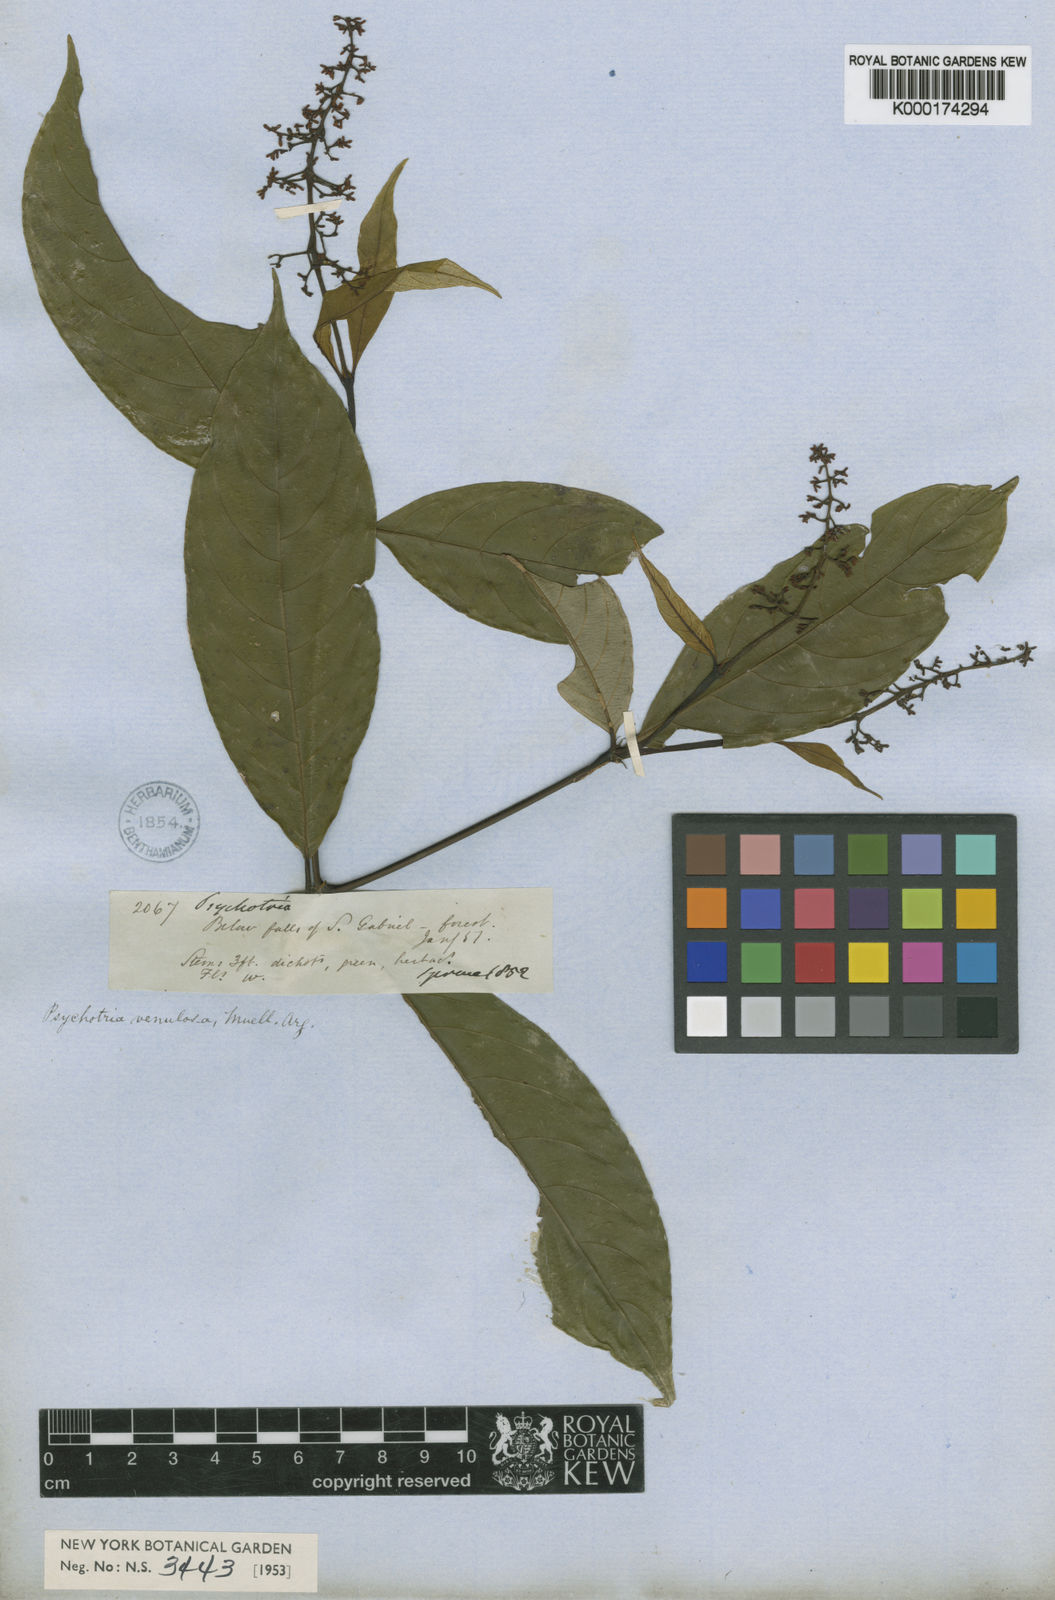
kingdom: Plantae
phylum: Tracheophyta
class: Magnoliopsida
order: Gentianales
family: Rubiaceae
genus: Palicourea
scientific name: Palicourea deflexa
